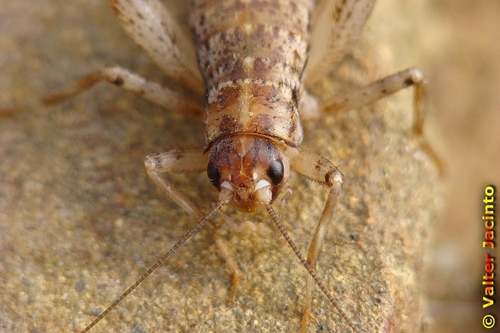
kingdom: Animalia
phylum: Arthropoda
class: Insecta
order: Orthoptera
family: Gryllidae
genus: Gryllomorpha
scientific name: Gryllomorpha longicauda
